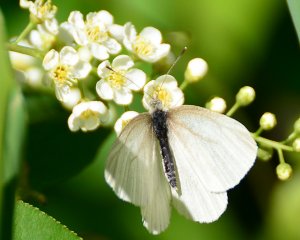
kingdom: Animalia
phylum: Arthropoda
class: Insecta
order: Lepidoptera
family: Pieridae
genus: Pieris
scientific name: Pieris virginiensis
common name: West Virginia White
